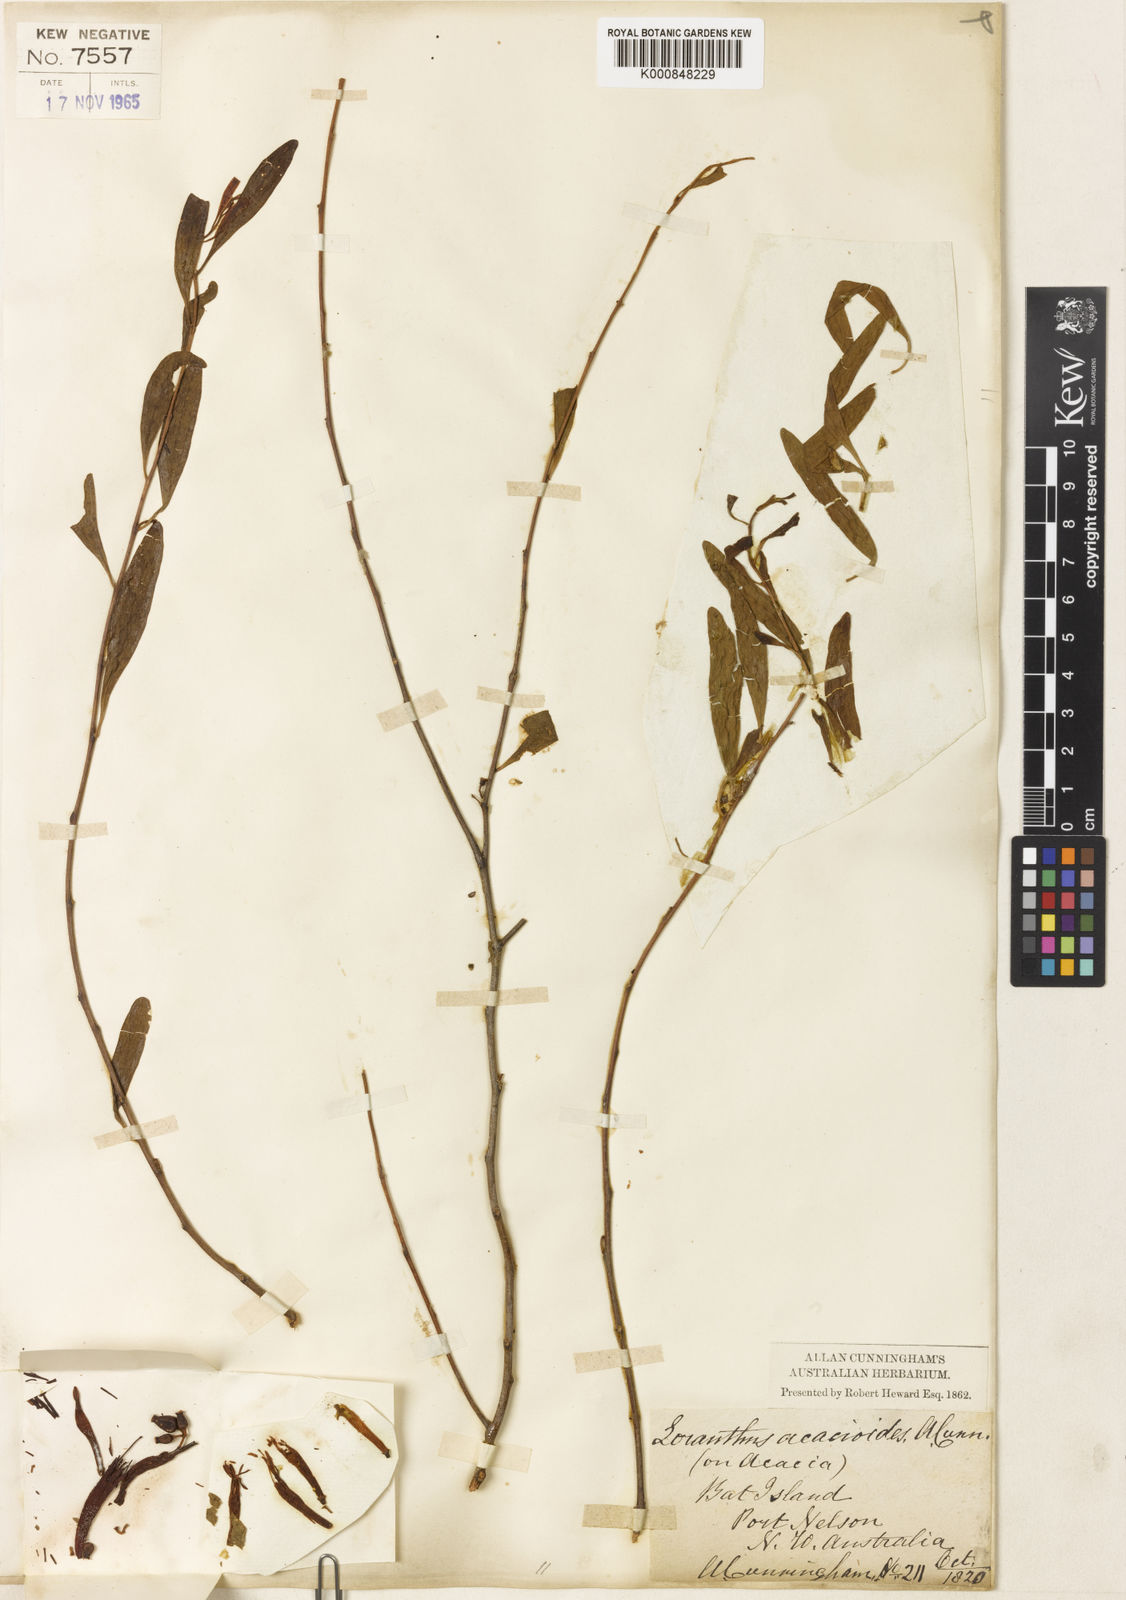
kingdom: Plantae
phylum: Tracheophyta
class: Magnoliopsida
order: Santalales
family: Loranthaceae
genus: Dendrophthoe
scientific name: Dendrophthoe acacioides
